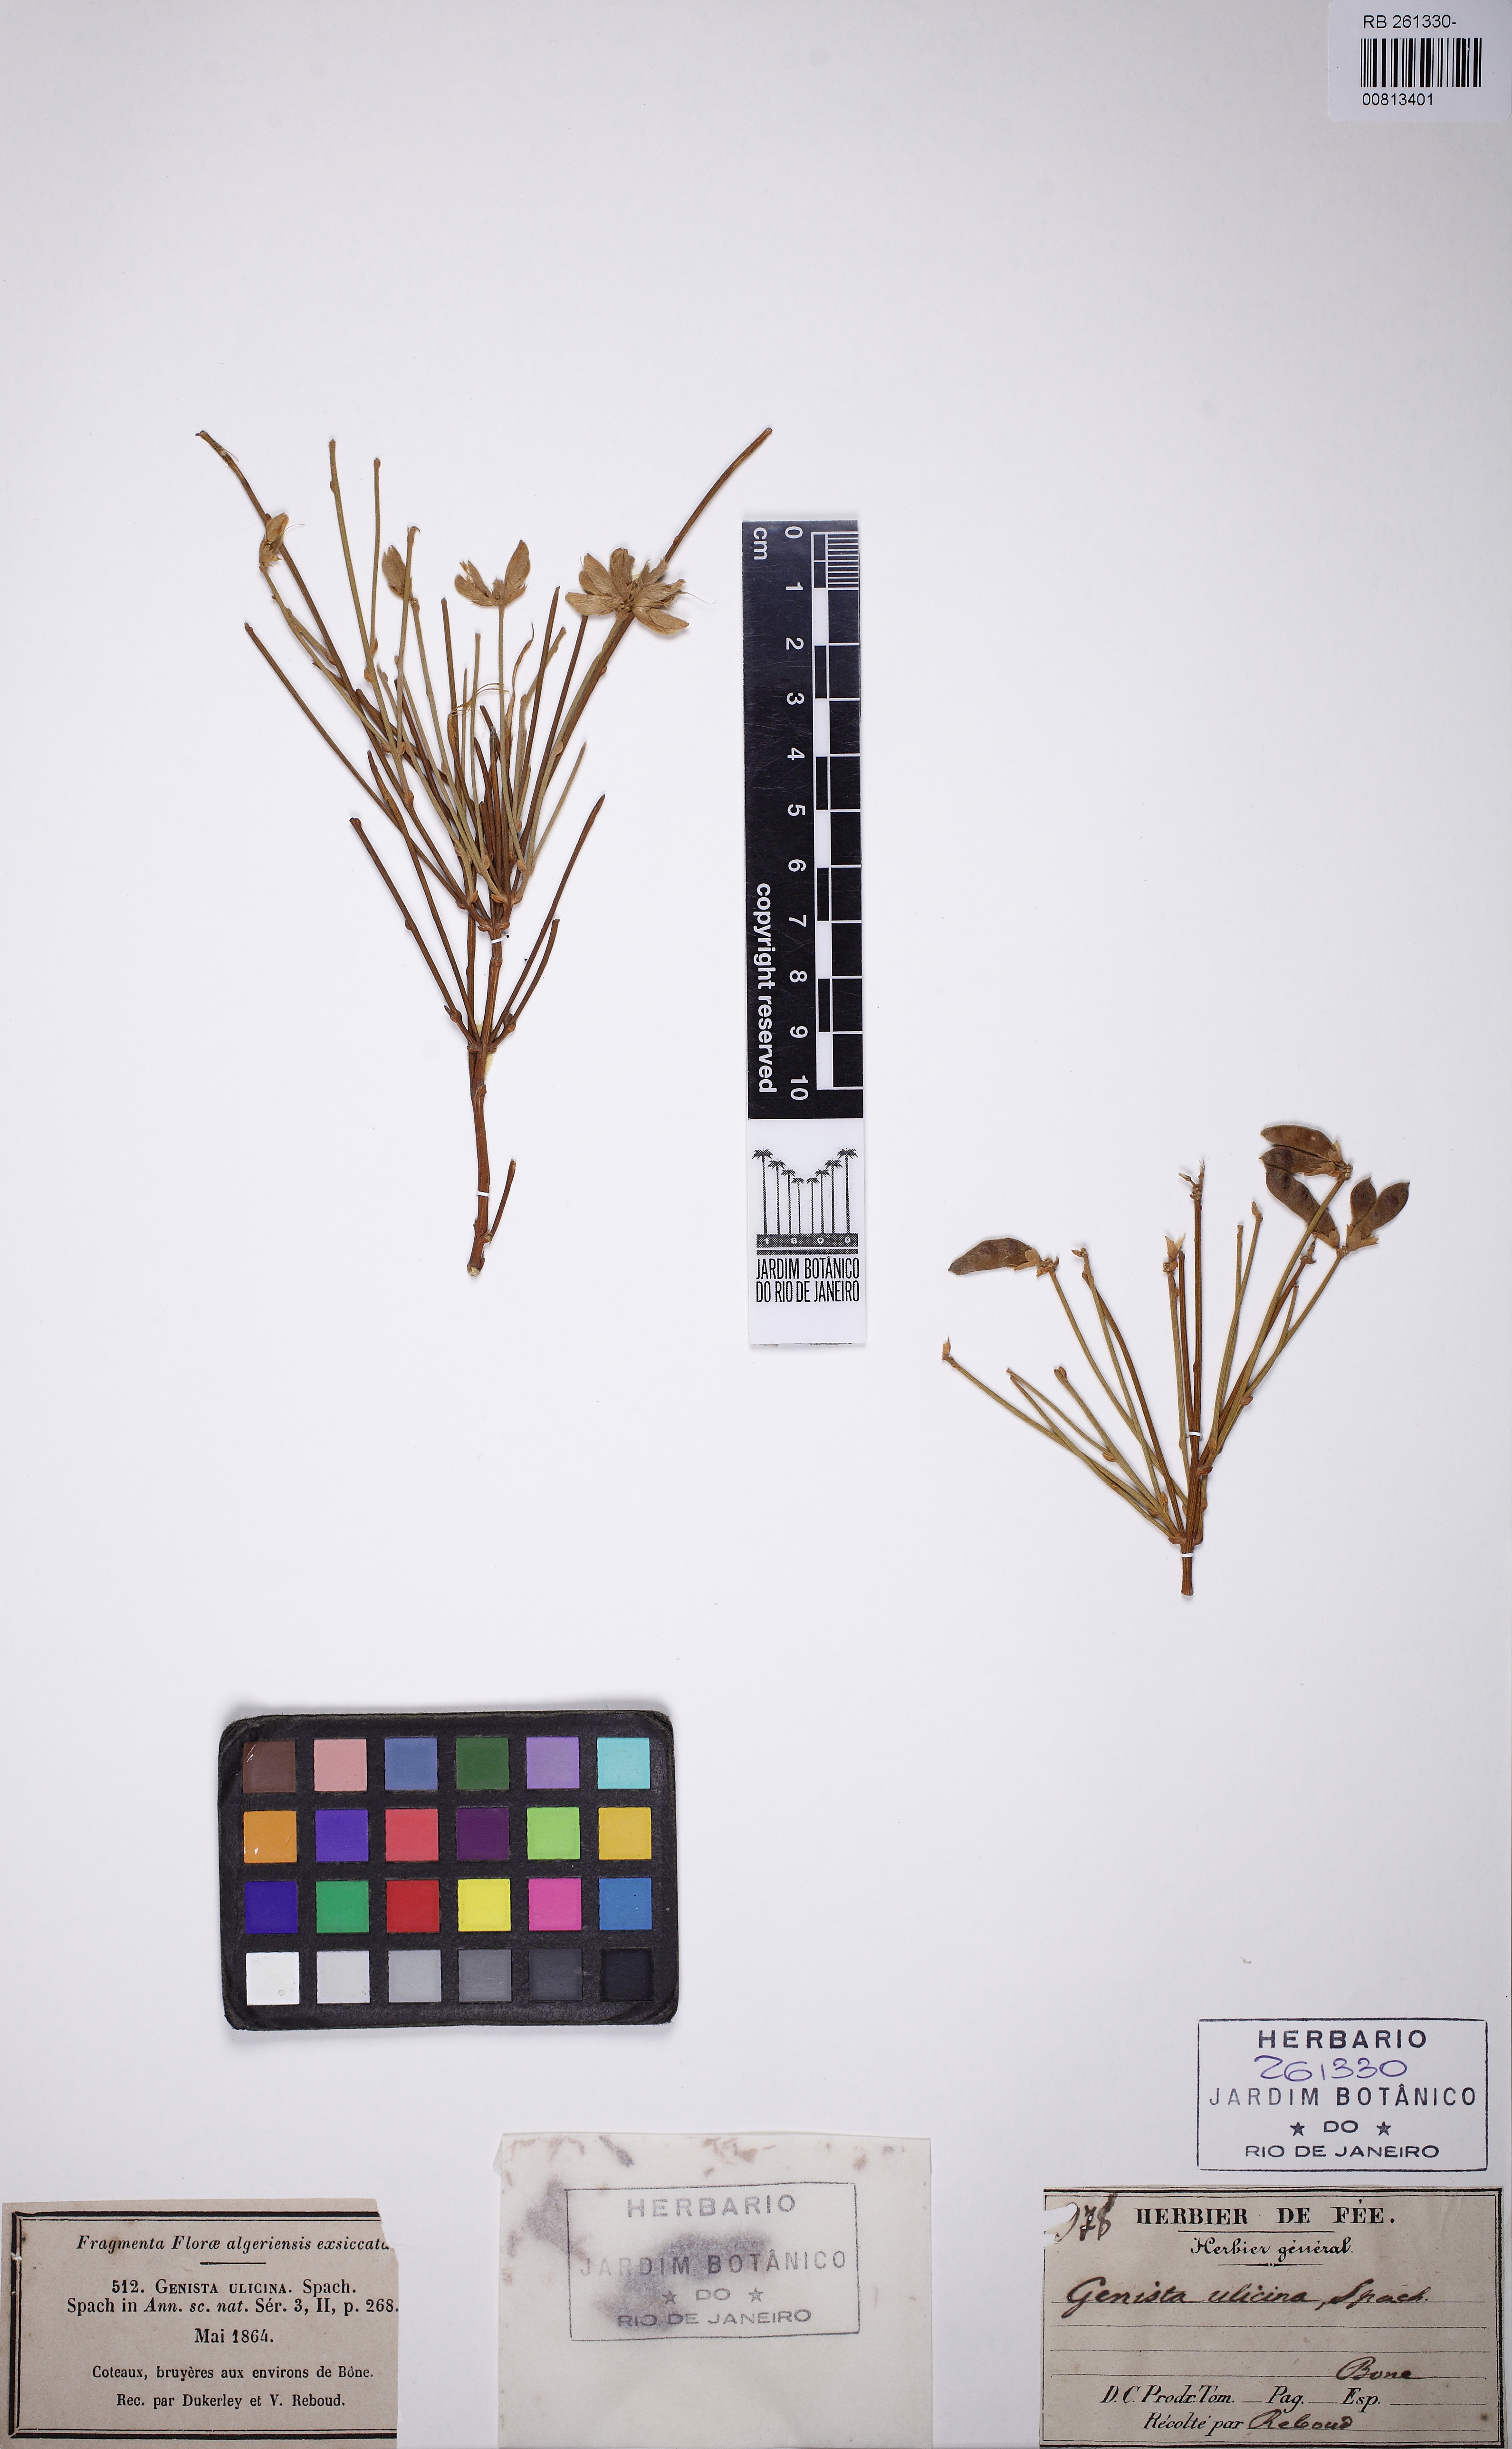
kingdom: Plantae
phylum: Tracheophyta
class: Magnoliopsida
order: Fabales
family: Fabaceae
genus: Genista
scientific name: Genista ulicina
